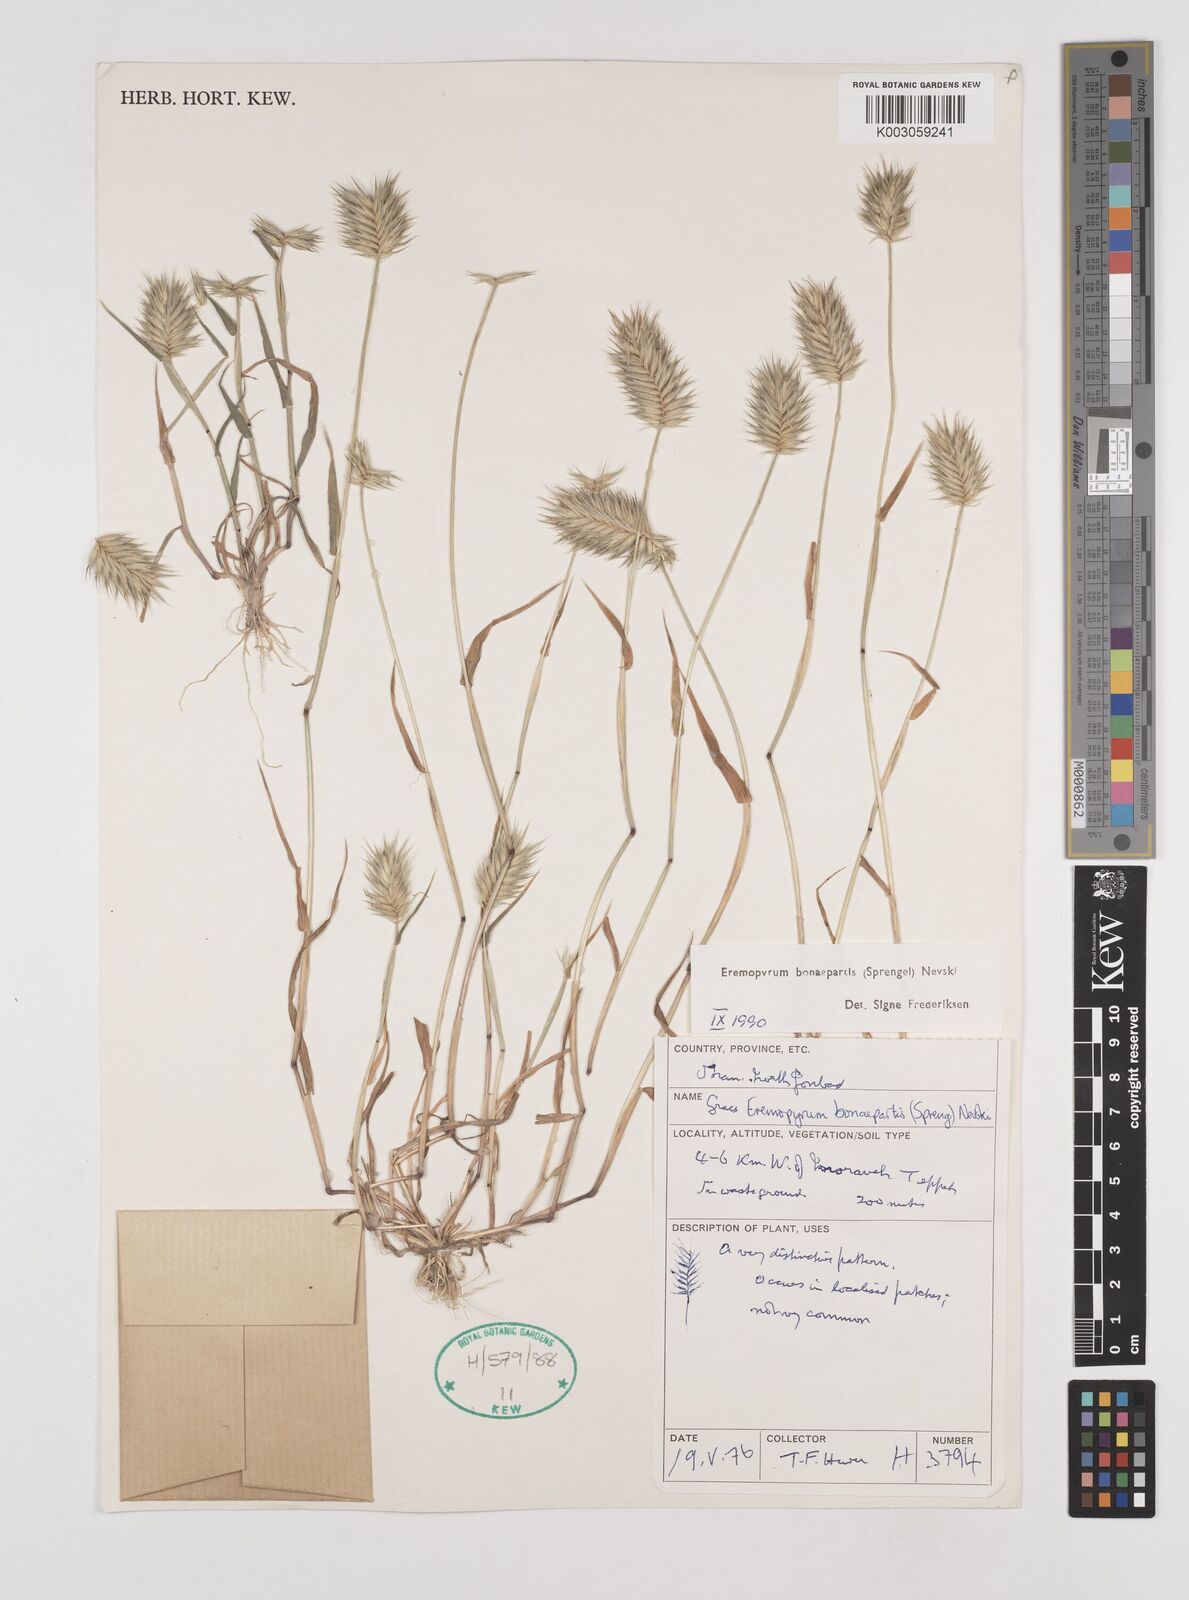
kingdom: Plantae
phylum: Tracheophyta
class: Liliopsida
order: Poales
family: Poaceae
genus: Eremopyrum
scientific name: Eremopyrum bonaepartis
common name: Tapertip false wheatgrass
